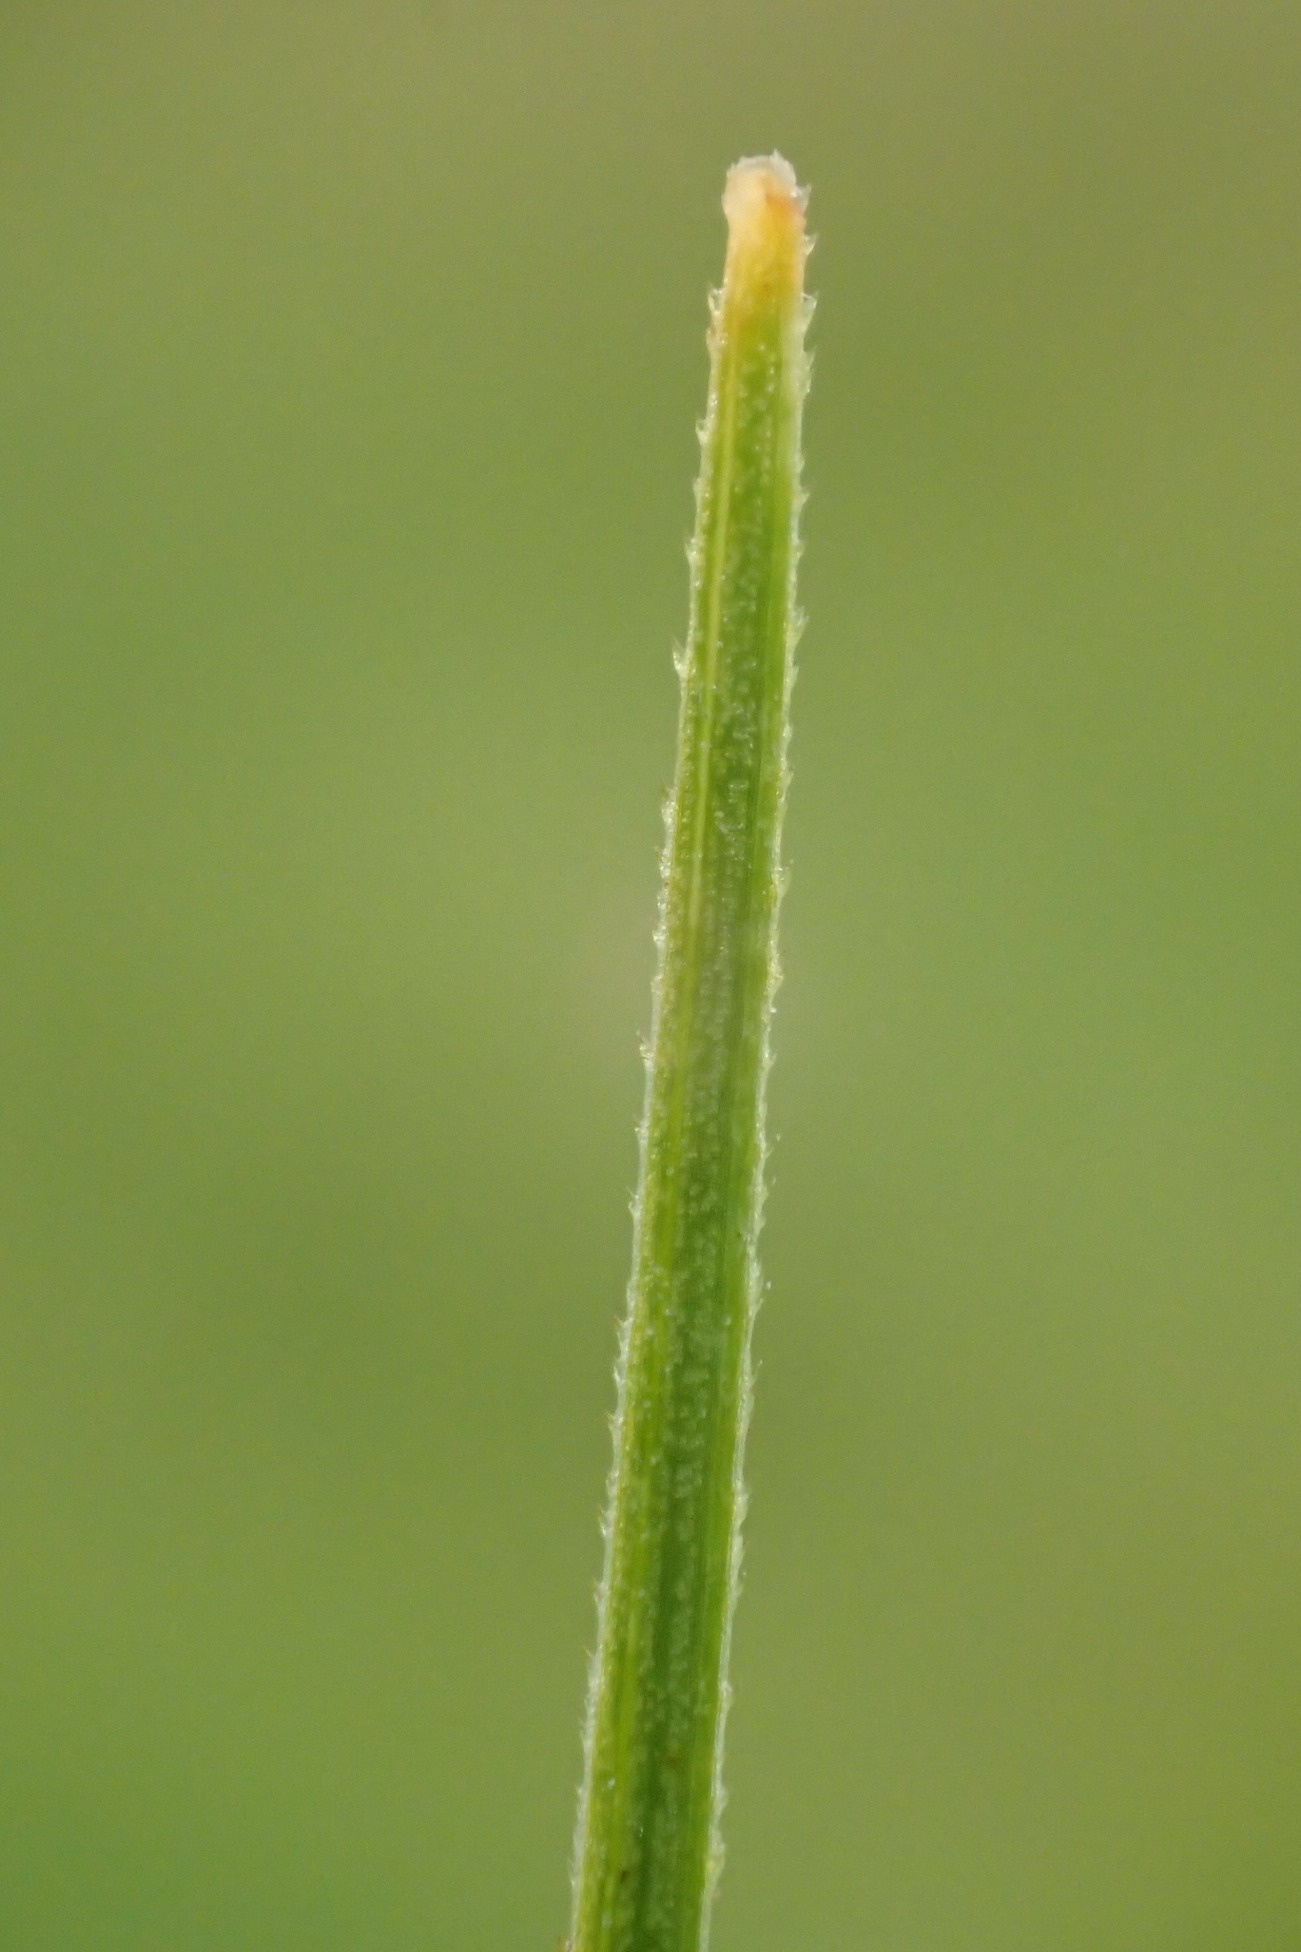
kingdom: Plantae
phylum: Tracheophyta
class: Liliopsida
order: Poales
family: Cyperaceae
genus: Blysmus
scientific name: Blysmus compressus
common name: Fladtrykt kogleaks
